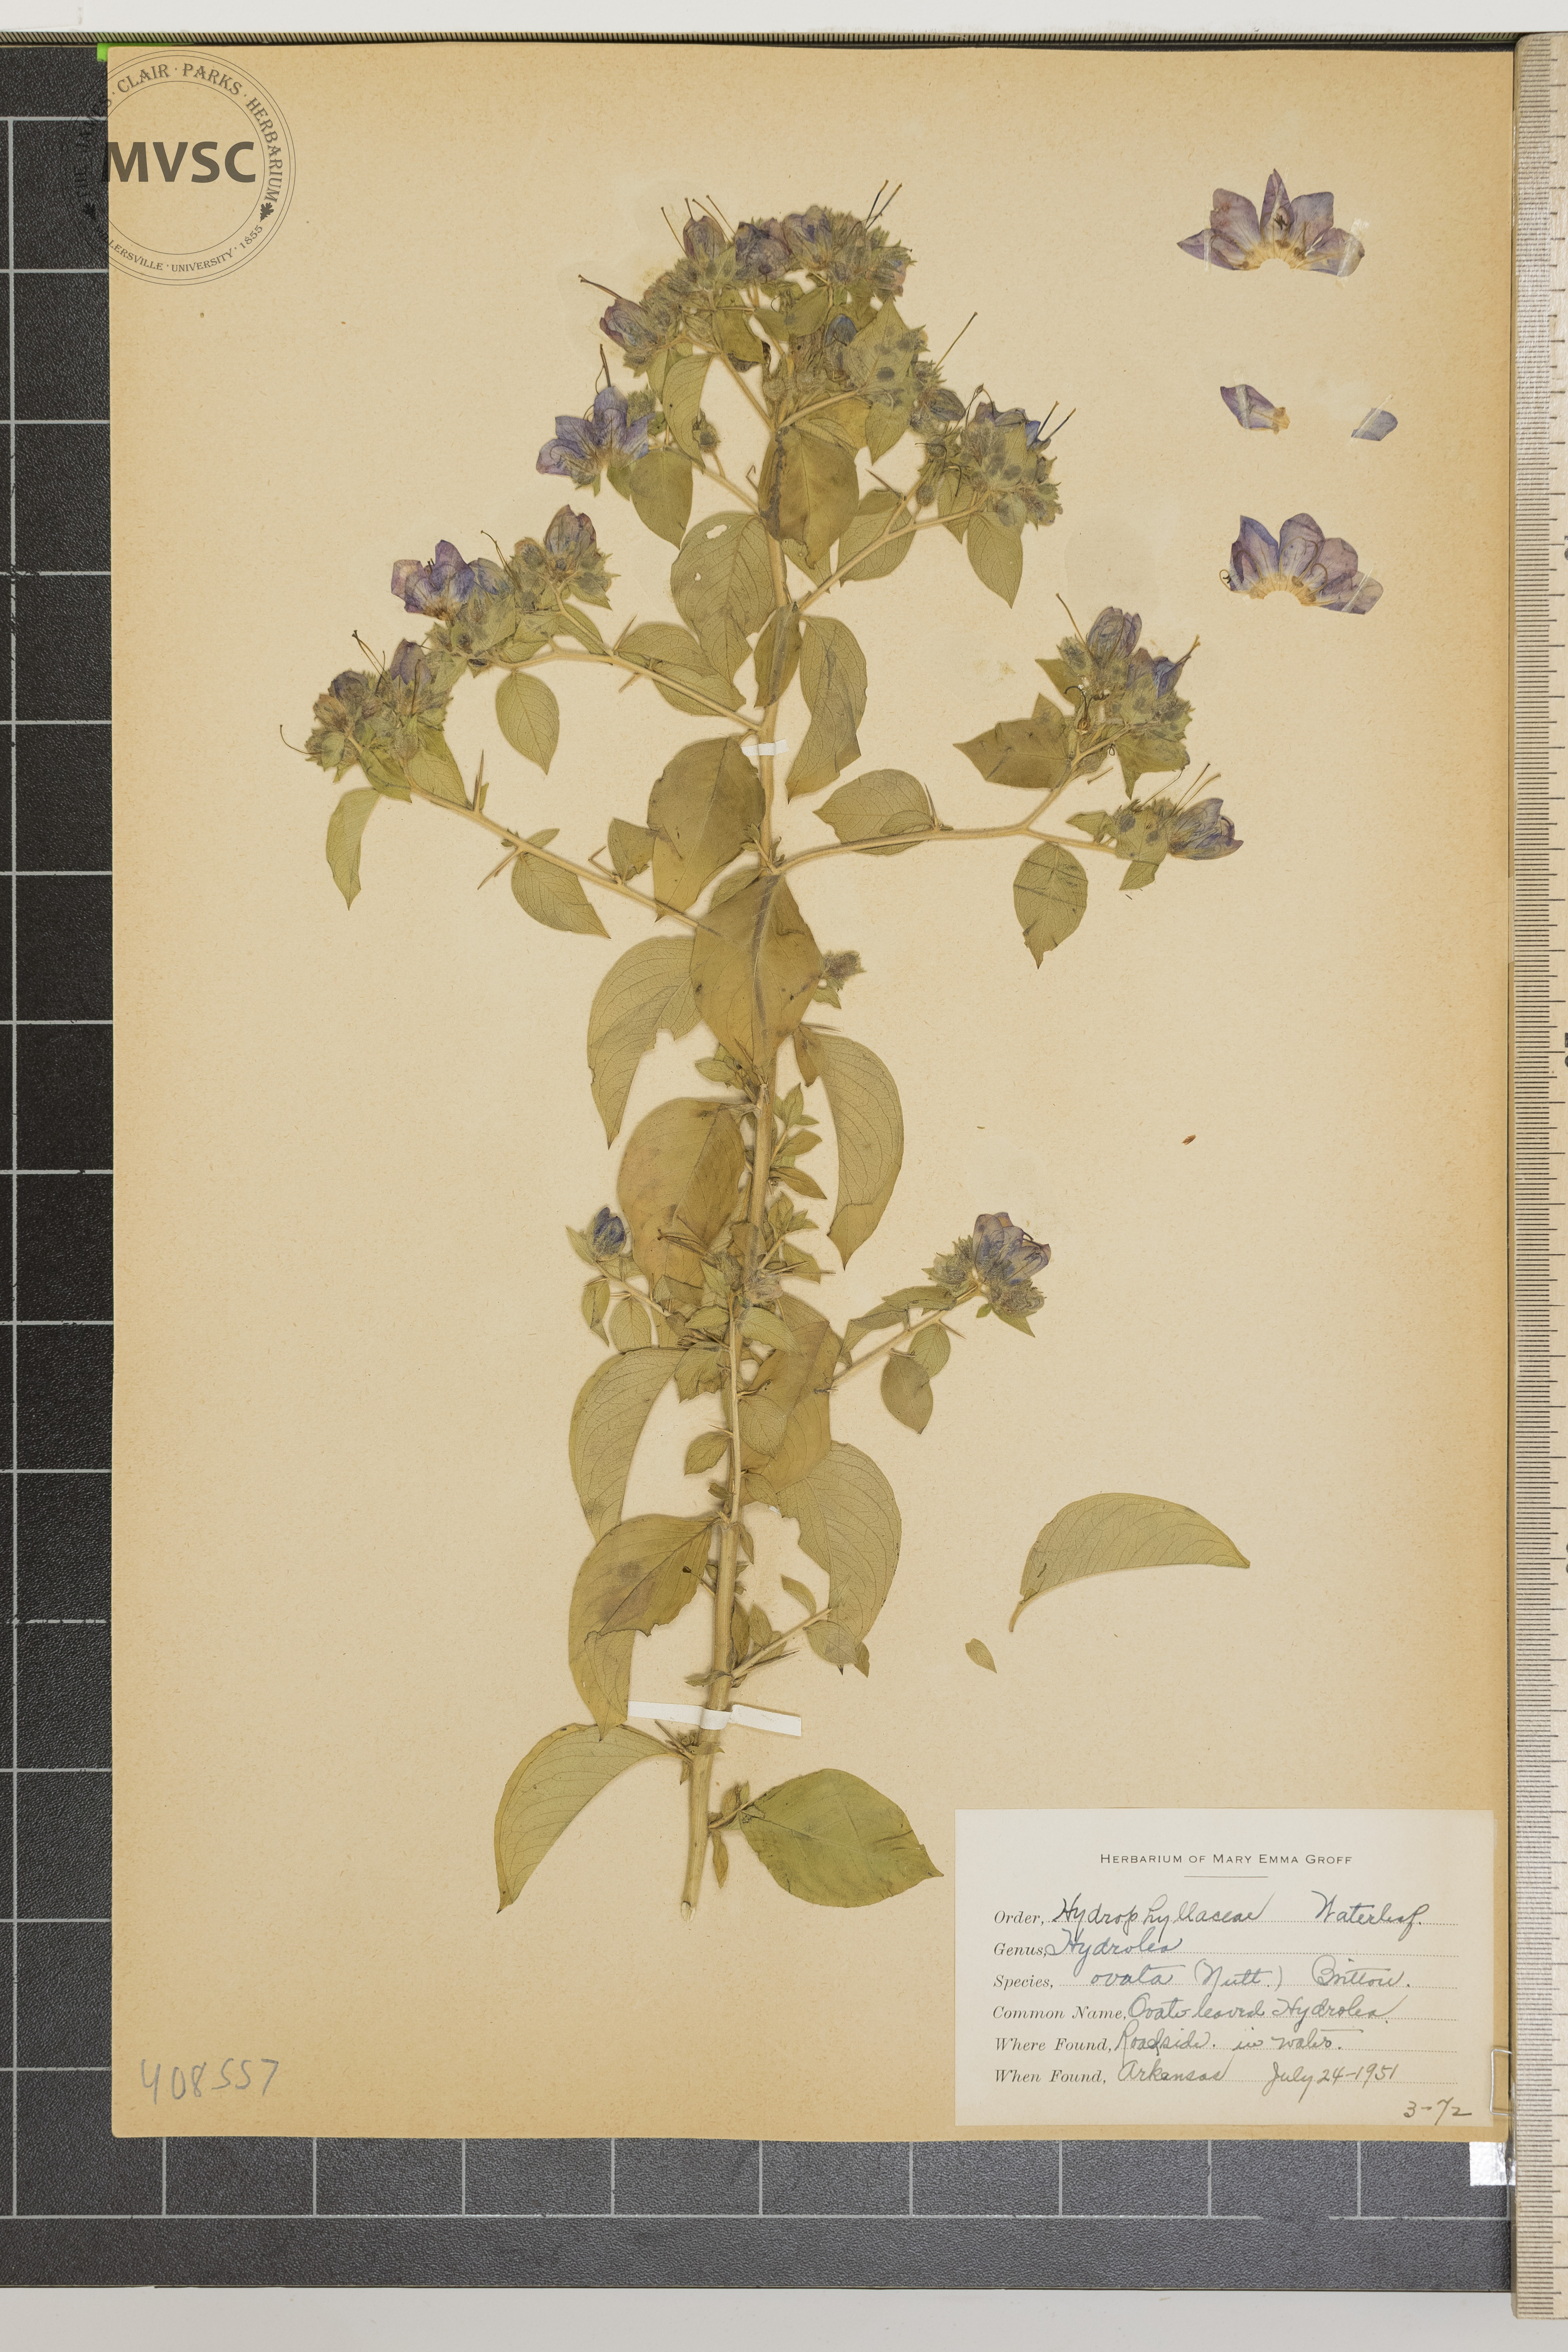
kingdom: Plantae
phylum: Tracheophyta
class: Magnoliopsida
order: Solanales
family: Hydroleaceae
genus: Hydrolea
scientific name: Hydrolea ovata
